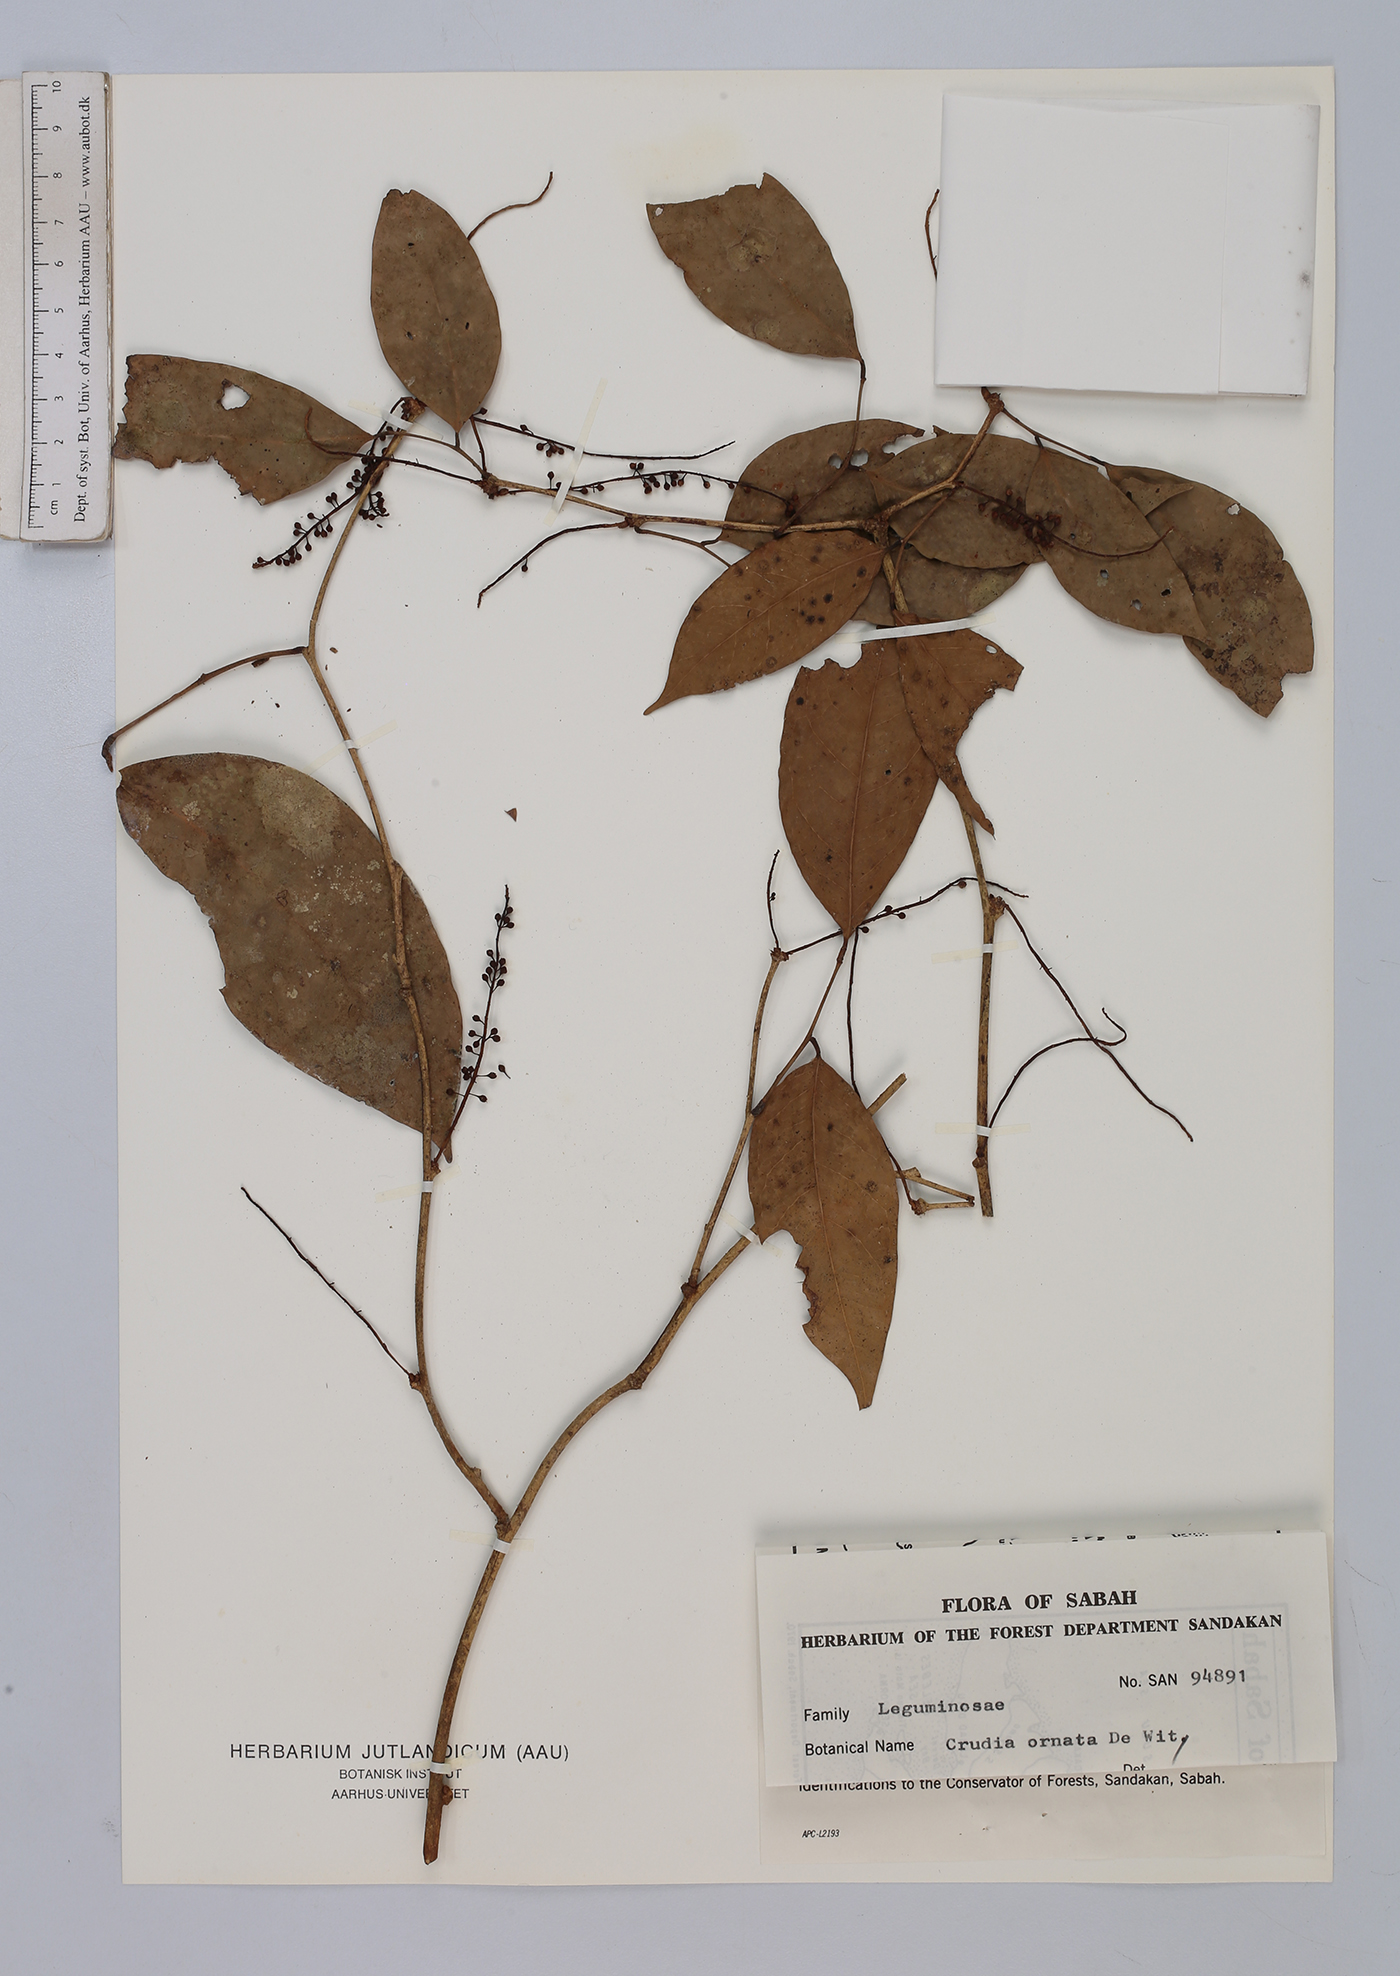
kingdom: Plantae
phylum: Tracheophyta
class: Magnoliopsida
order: Fabales
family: Fabaceae
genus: Crudia
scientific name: Crudia ornata
